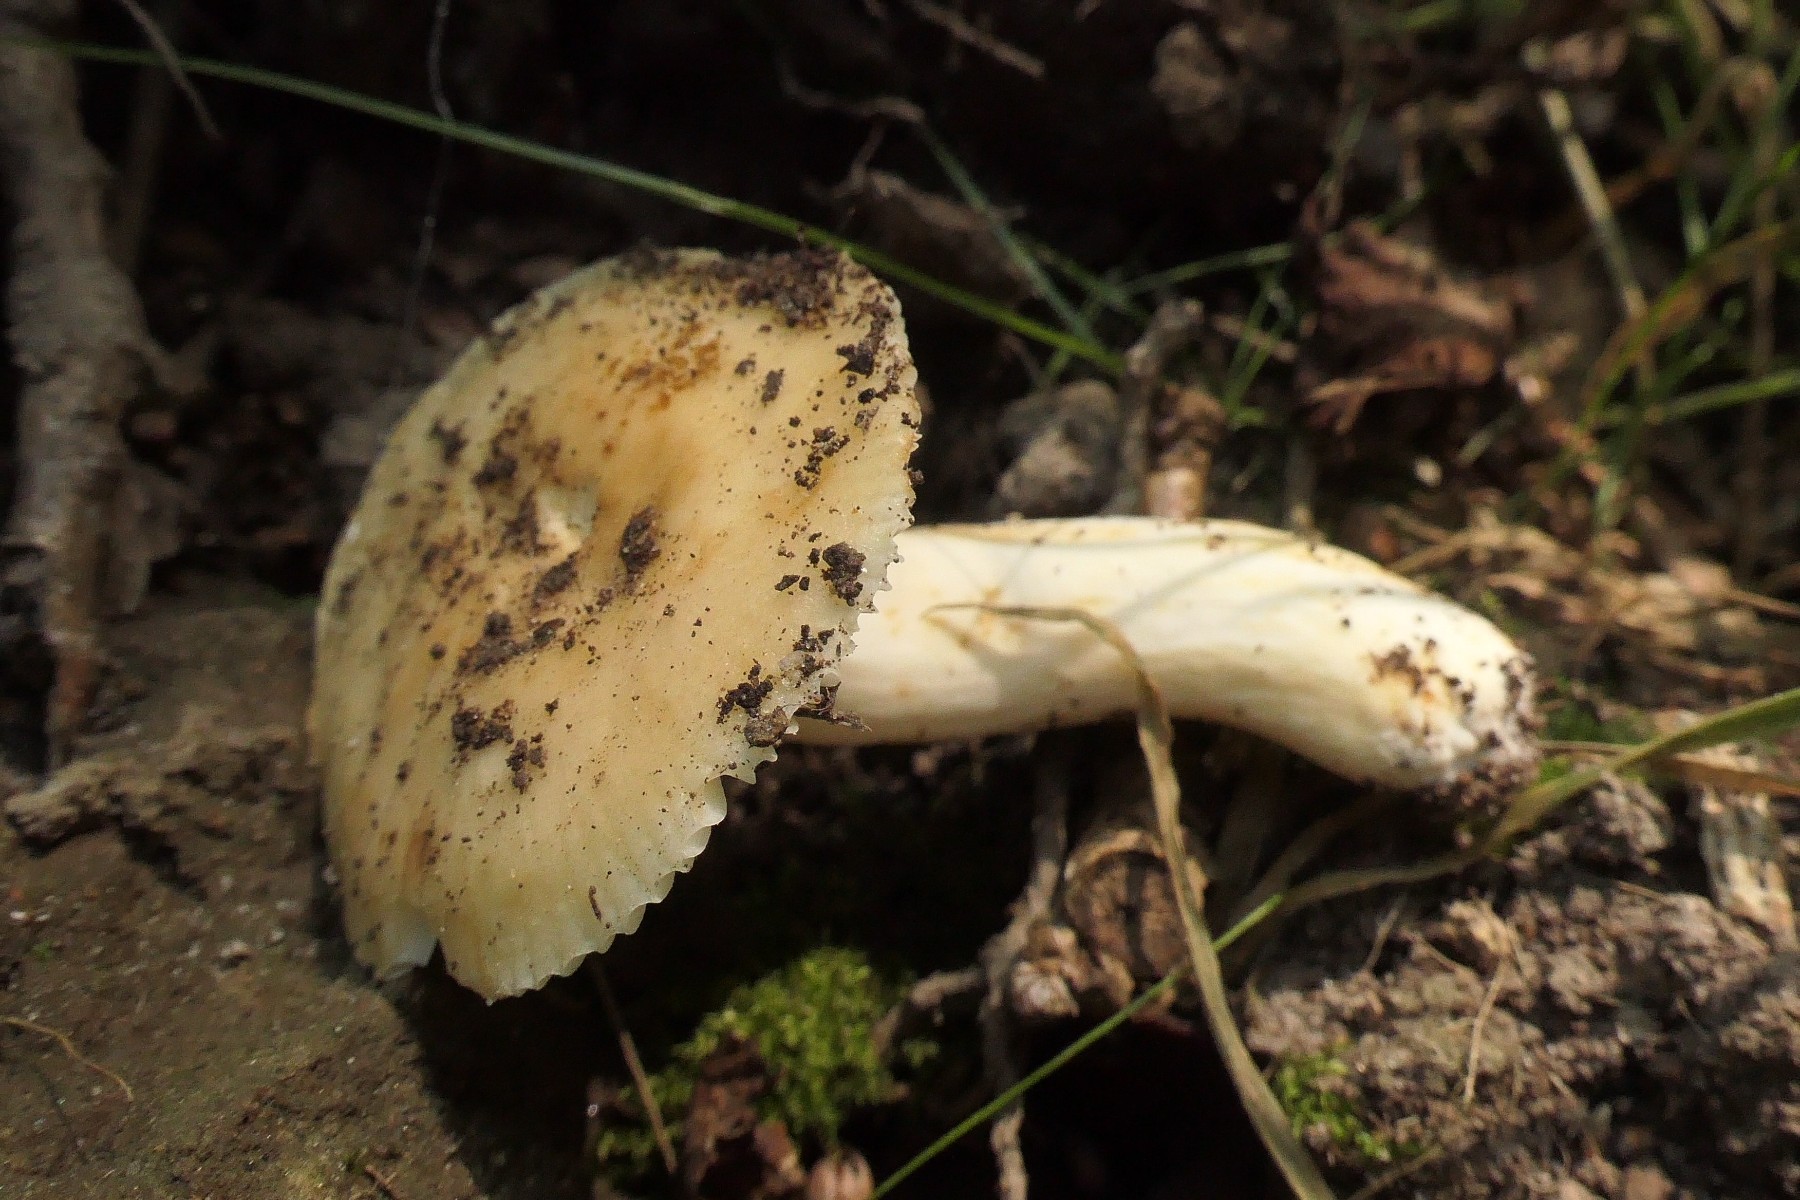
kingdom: Fungi
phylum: Basidiomycota
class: Agaricomycetes
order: Russulales
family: Russulaceae
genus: Russula
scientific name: Russula farinipes
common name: gul kam-skørhat
